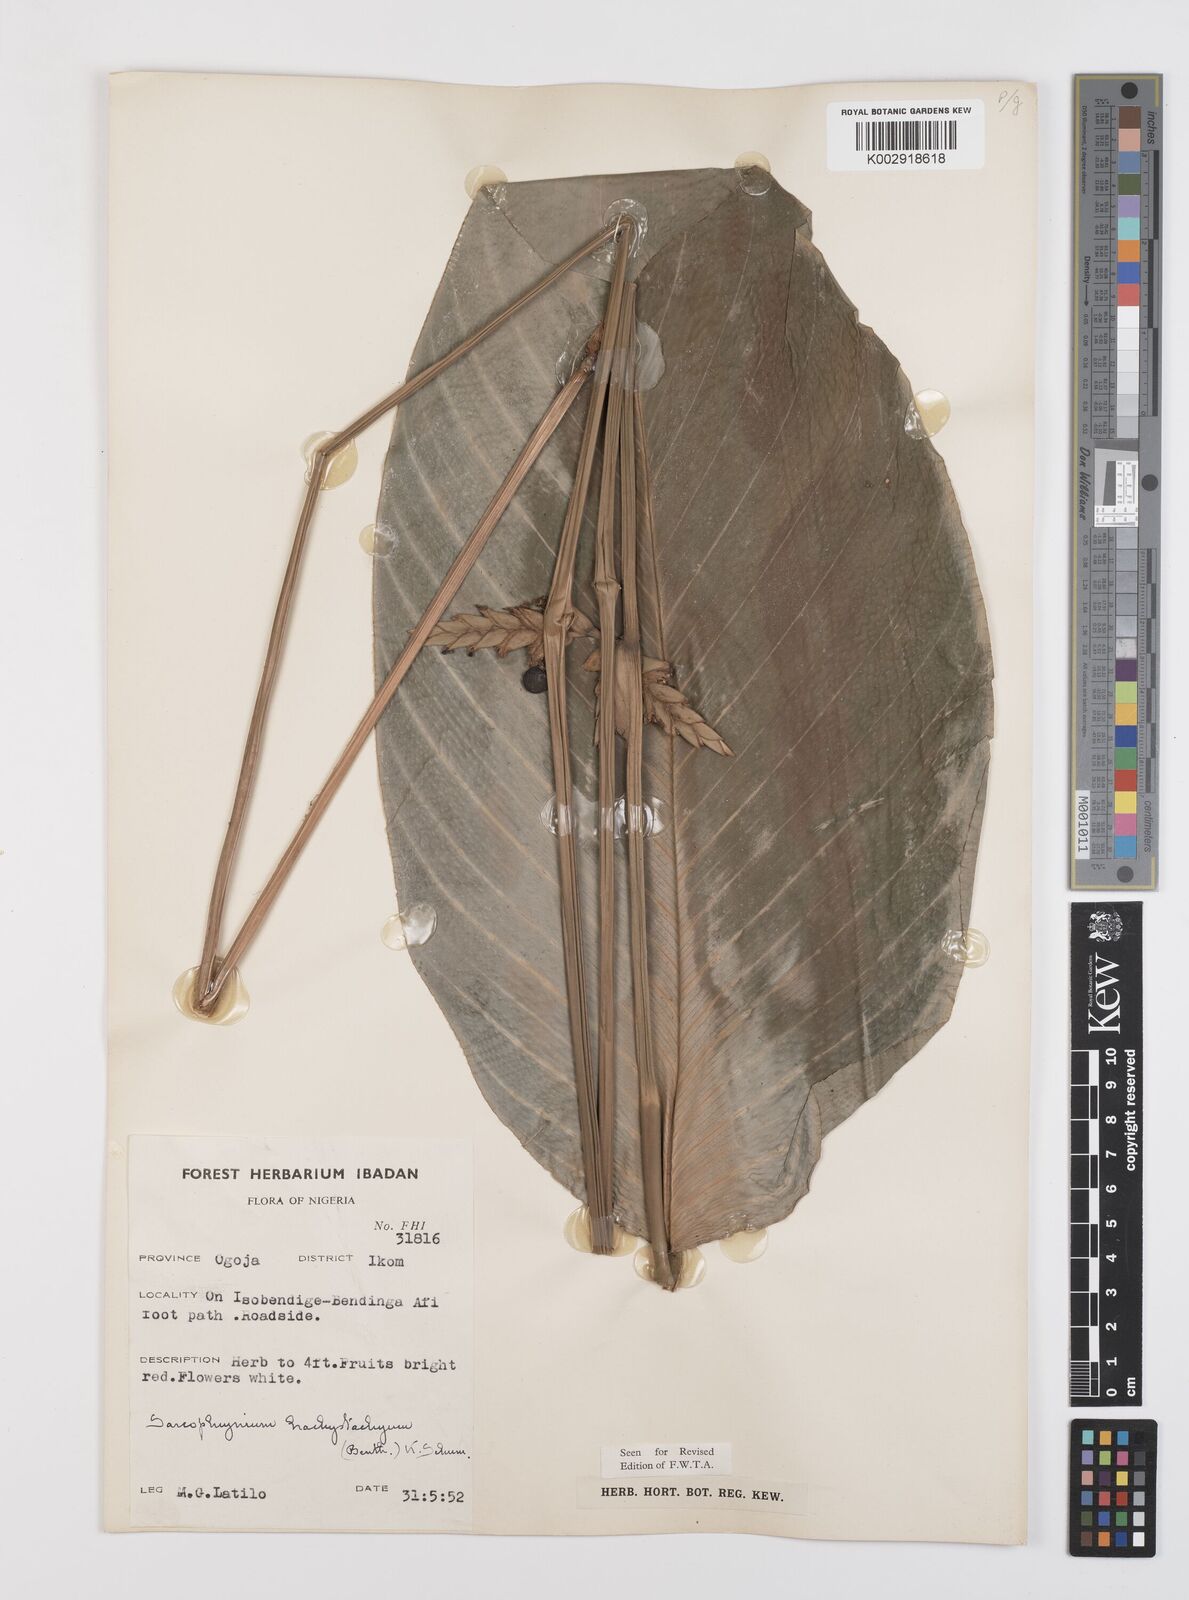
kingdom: Plantae
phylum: Tracheophyta
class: Liliopsida
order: Zingiberales
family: Marantaceae
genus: Sarcophrynium
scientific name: Sarcophrynium brachystachyum
